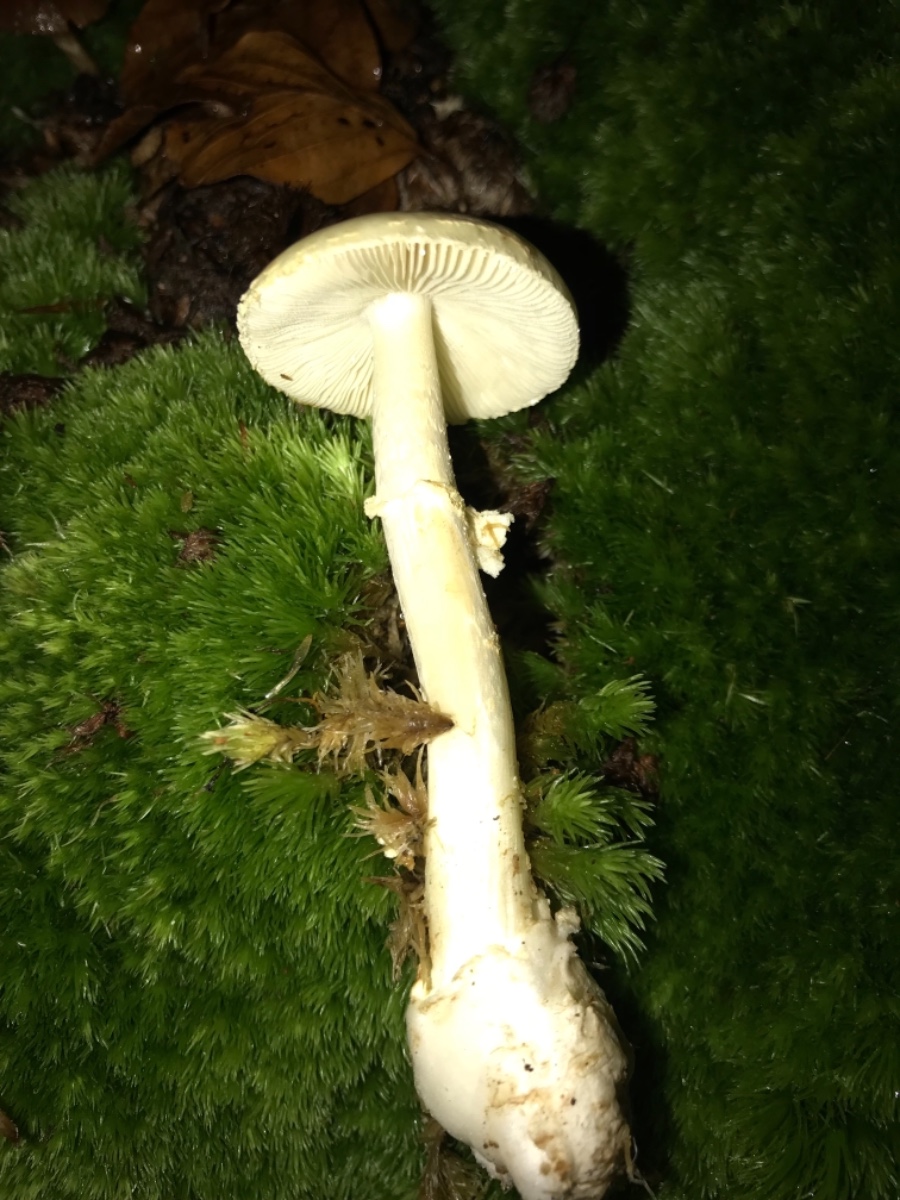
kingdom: Fungi
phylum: Basidiomycota
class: Agaricomycetes
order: Agaricales
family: Amanitaceae
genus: Amanita
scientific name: Amanita citrina
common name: False death-cap
